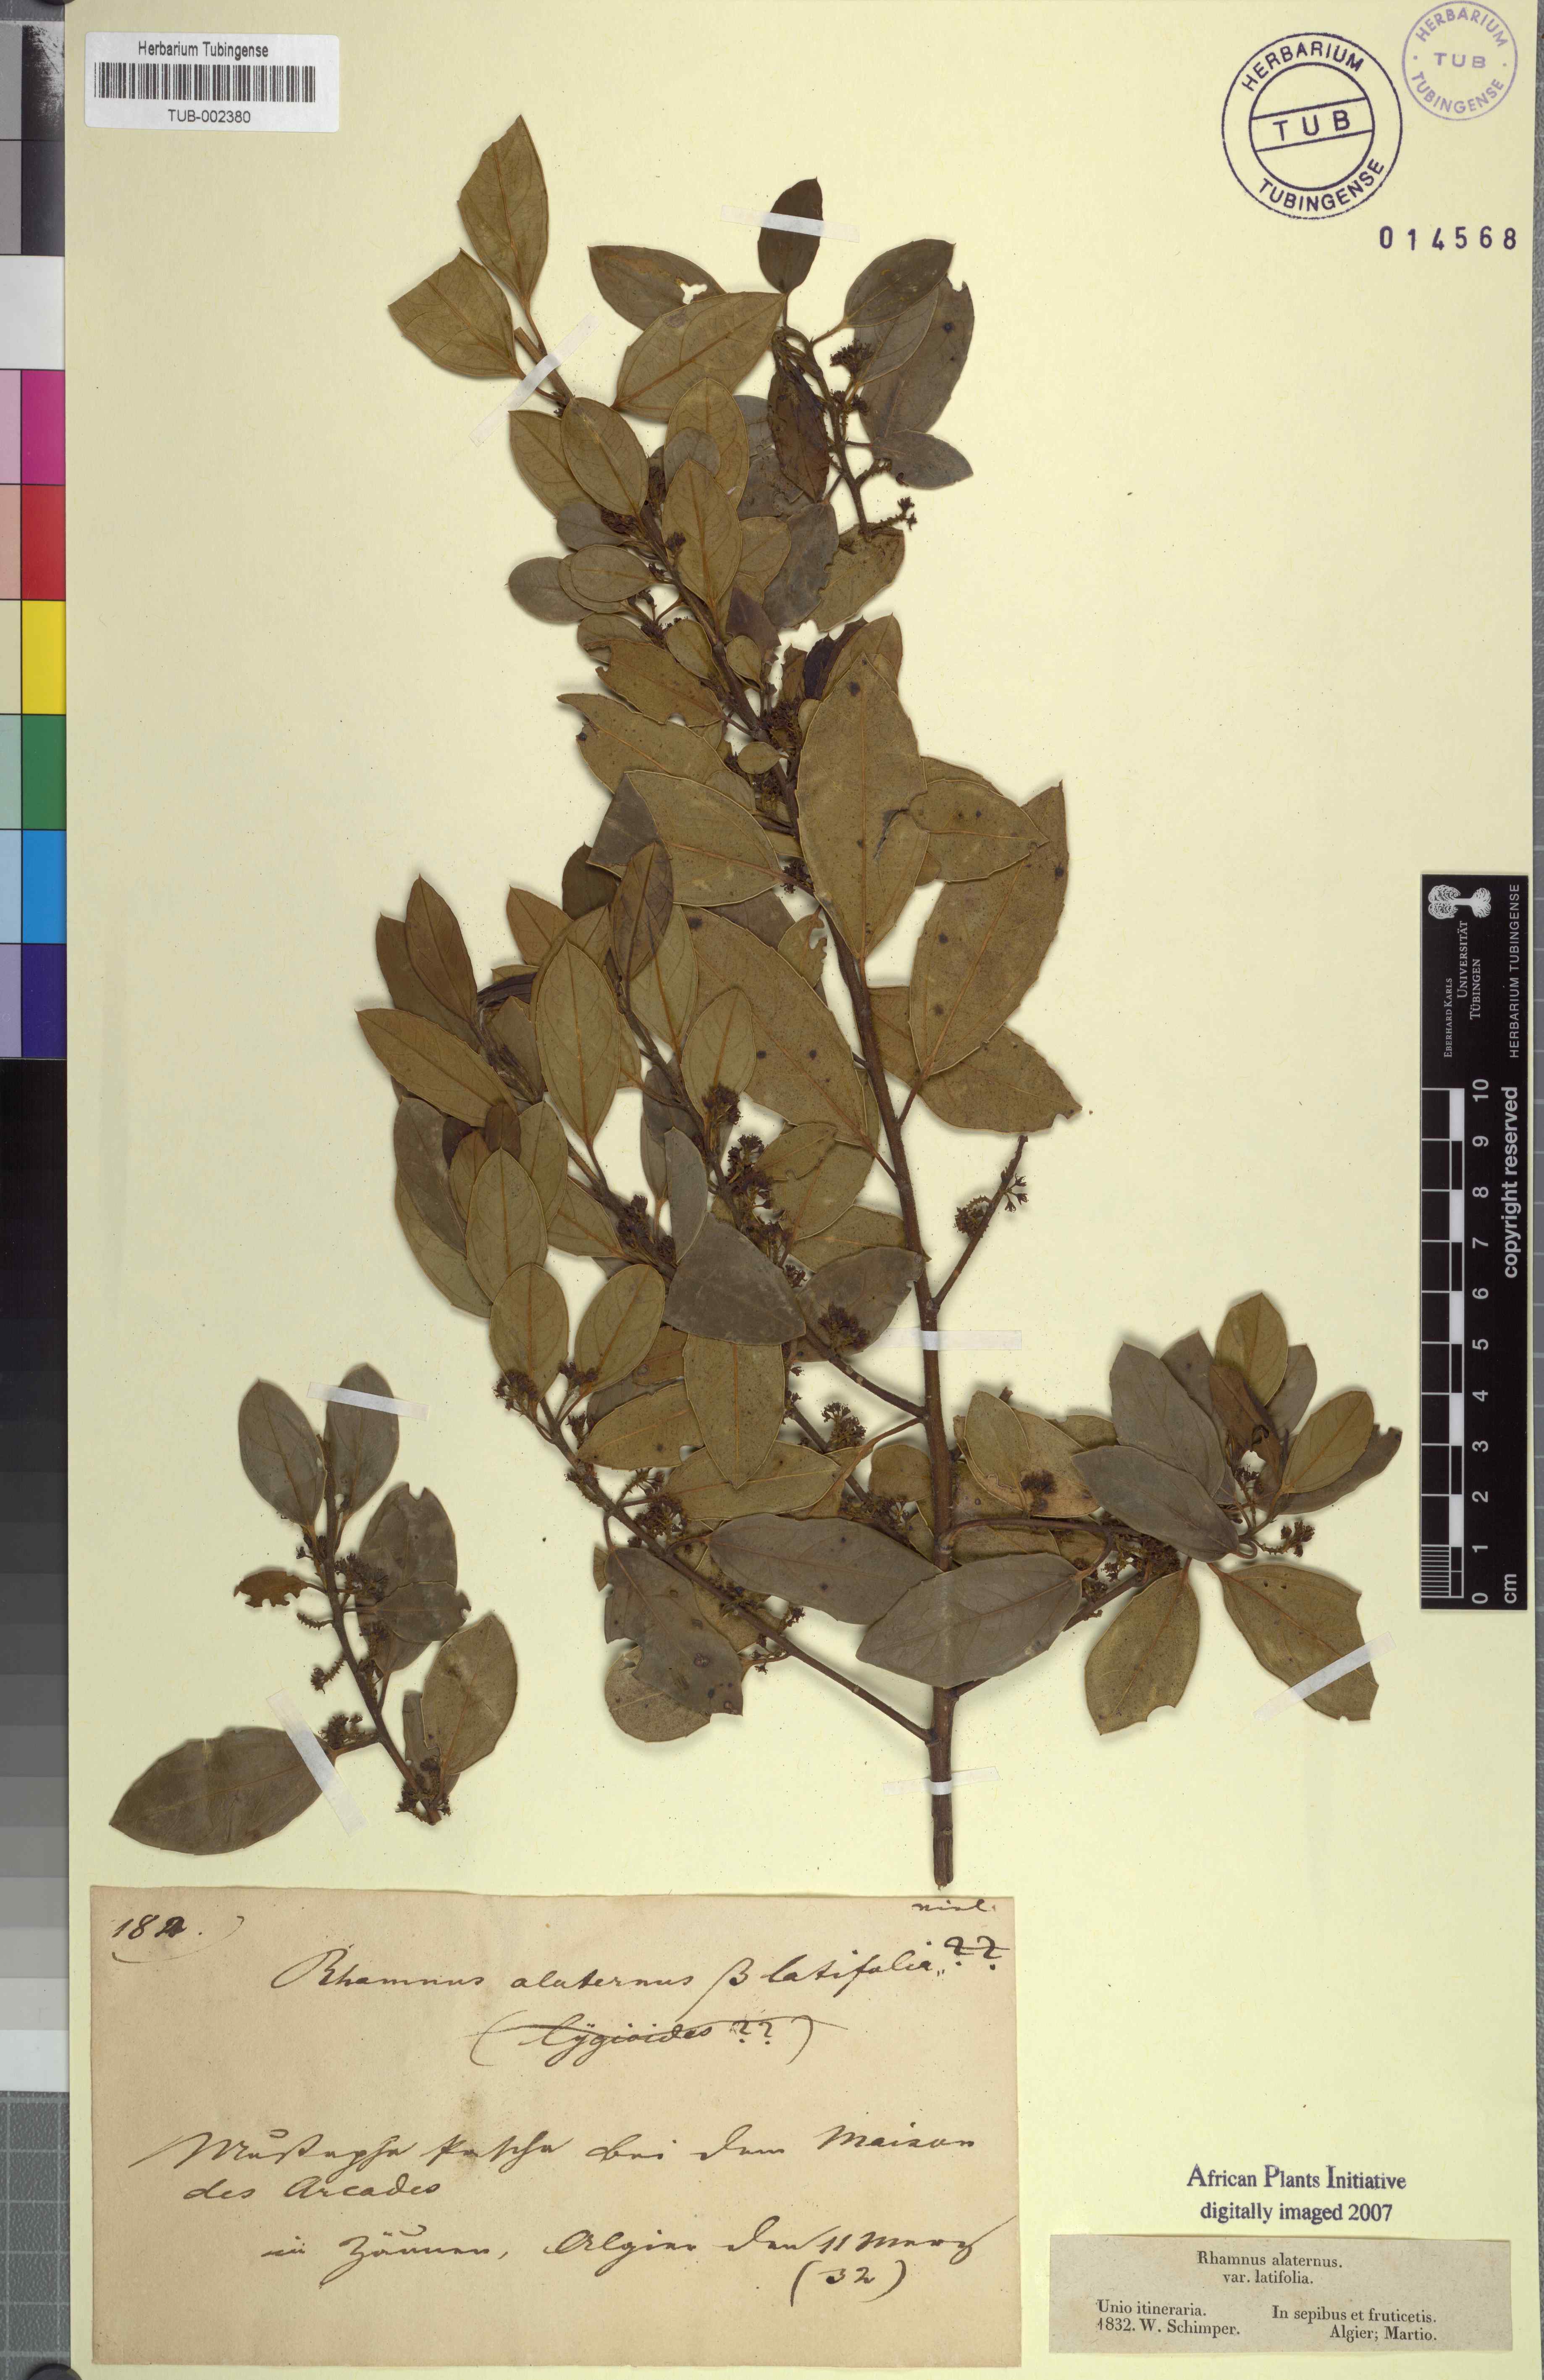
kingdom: Plantae
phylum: Tracheophyta
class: Magnoliopsida
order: Rosales
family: Rhamnaceae
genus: Rhamnus
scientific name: Rhamnus alaternus
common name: Mediterranean buckthorn
